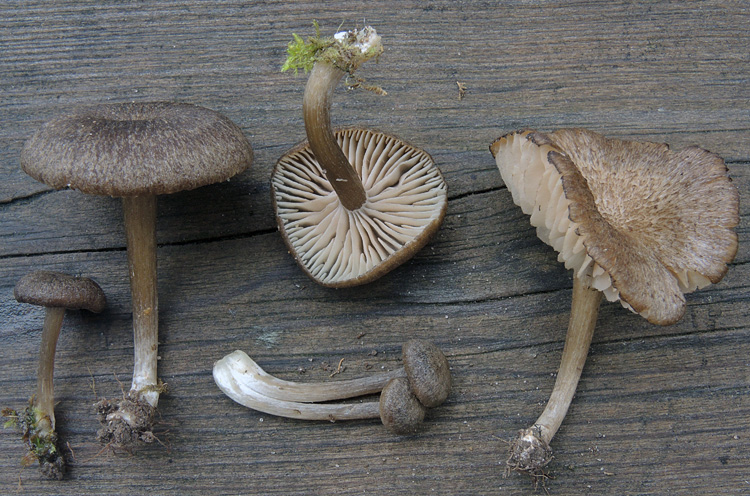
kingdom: Fungi
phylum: Basidiomycota
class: Agaricomycetes
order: Agaricales
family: Entolomataceae
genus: Entoloma
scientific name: Entoloma fuscotomentosum
